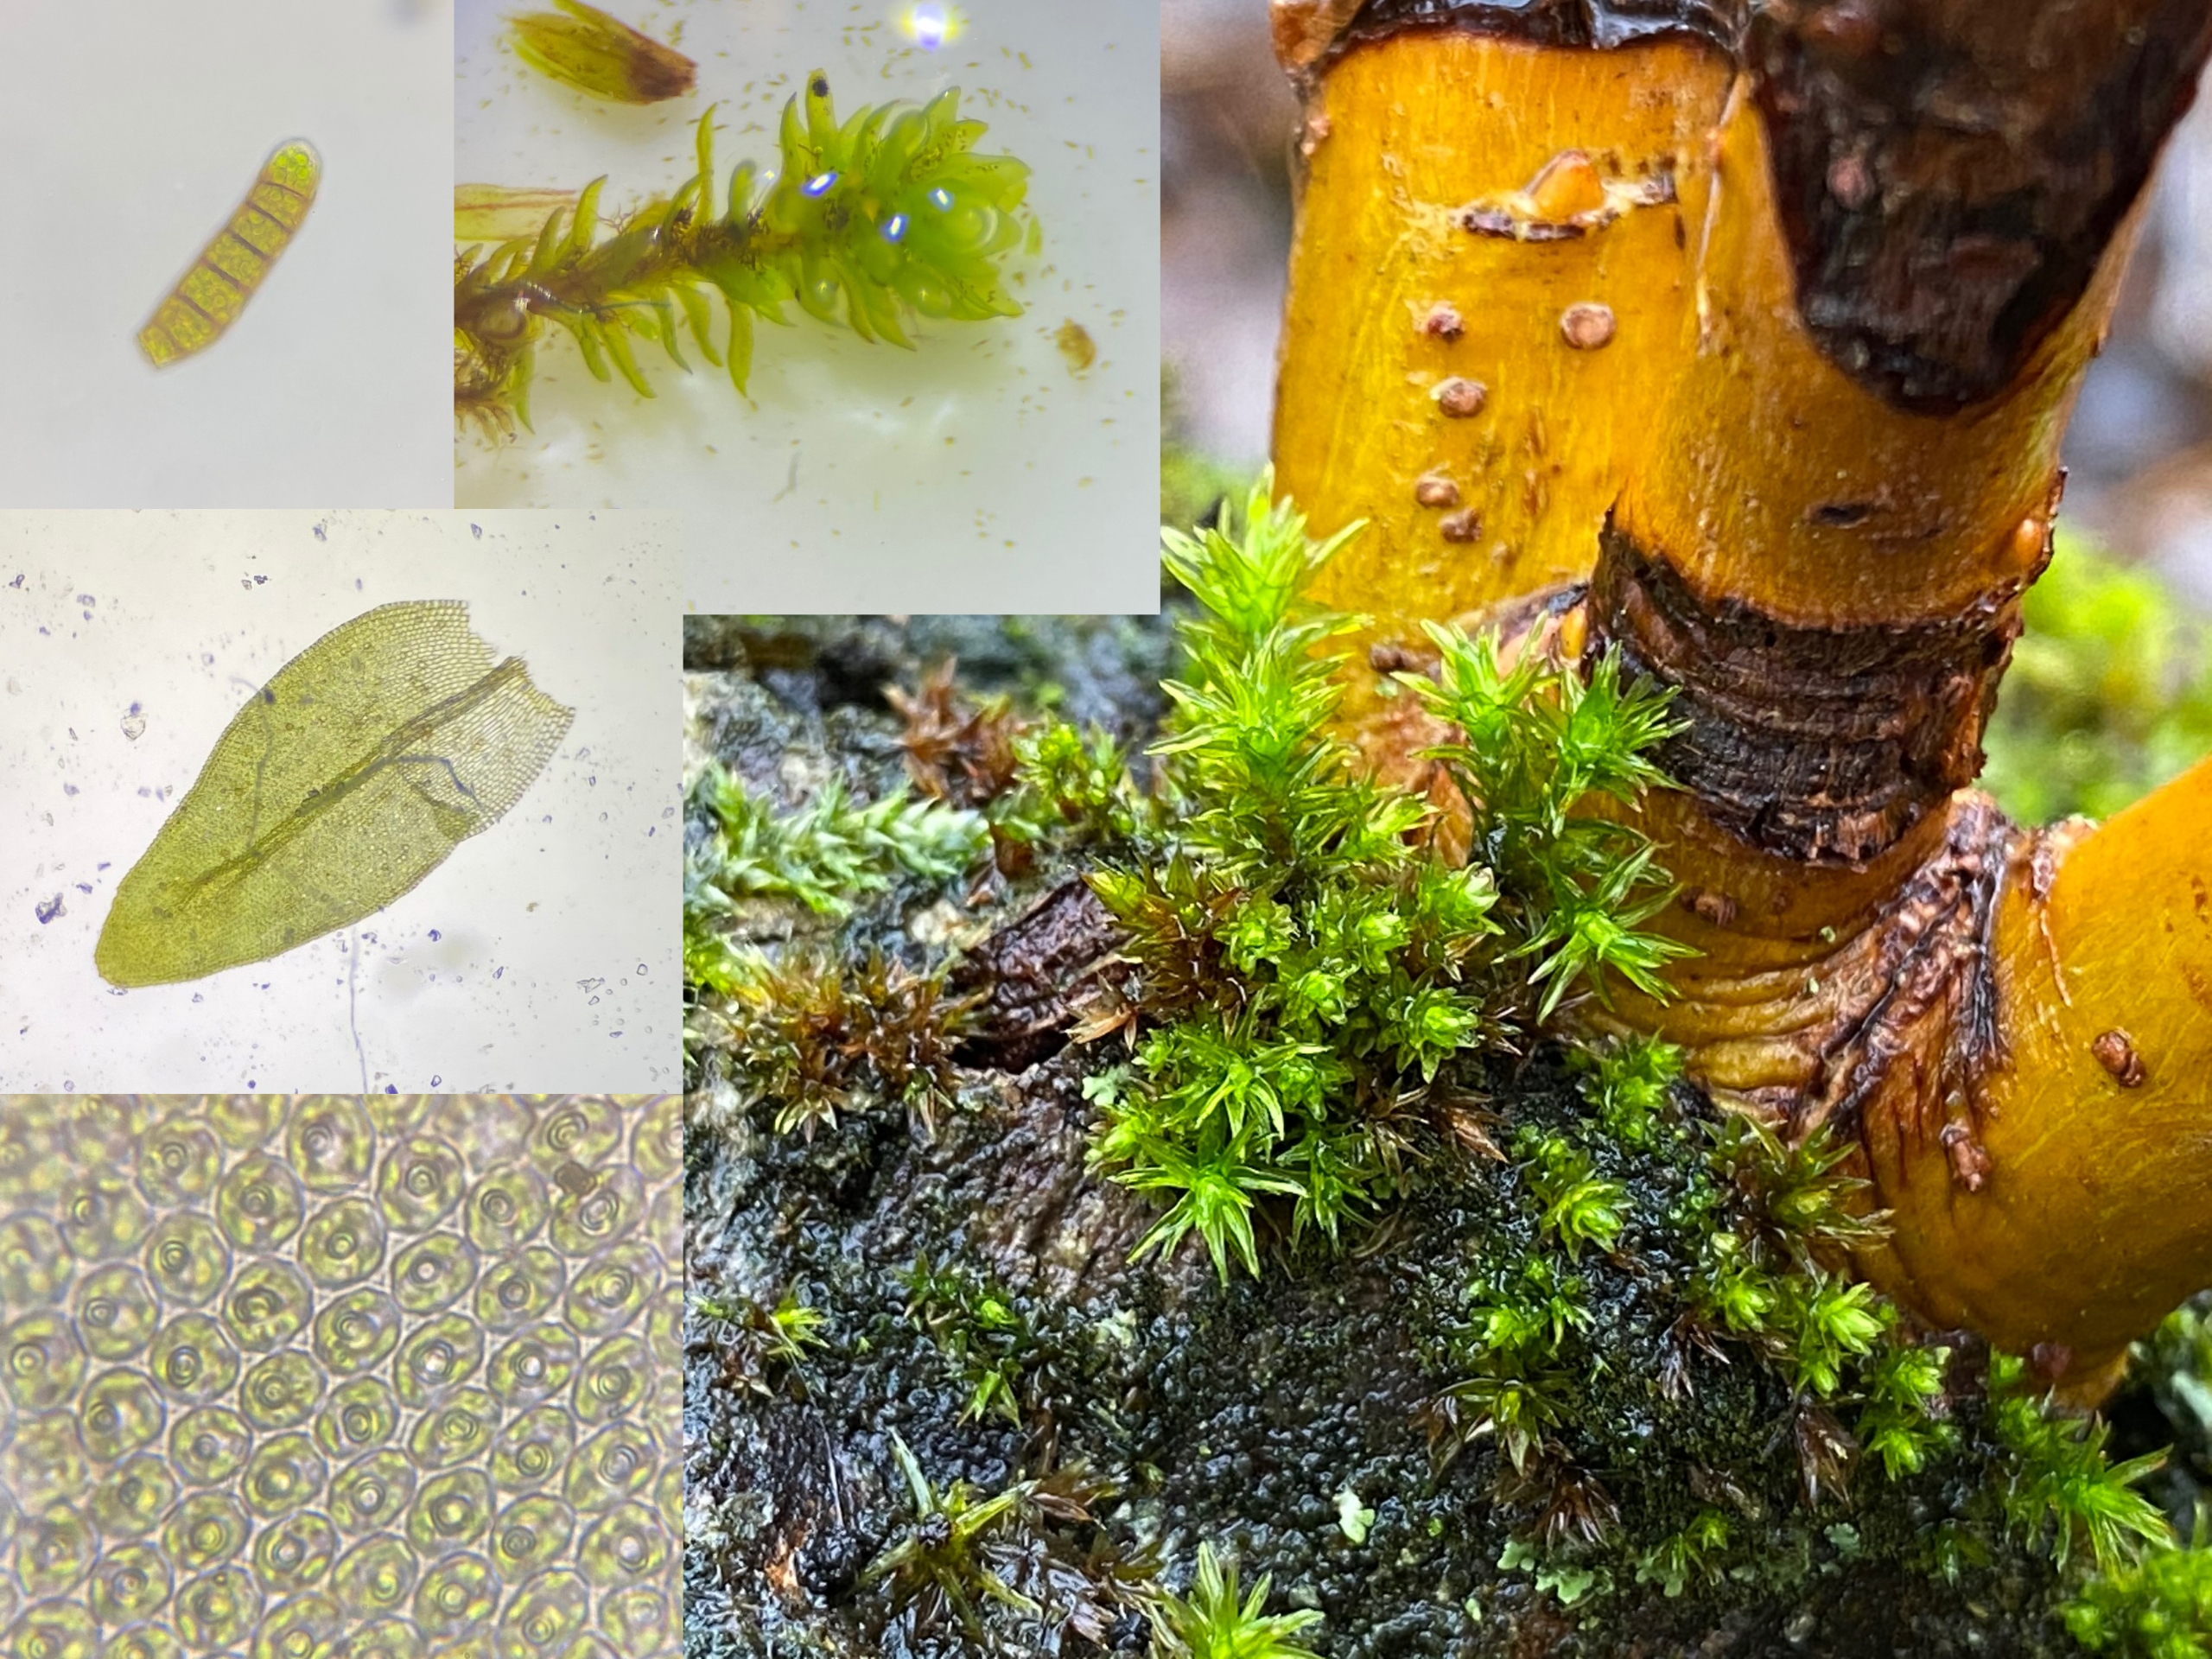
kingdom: Plantae
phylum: Bryophyta
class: Bryopsida
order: Orthotrichales
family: Orthotrichaceae
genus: Nyholmiella
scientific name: Nyholmiella obtusifolia
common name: Butbladet furehætte
